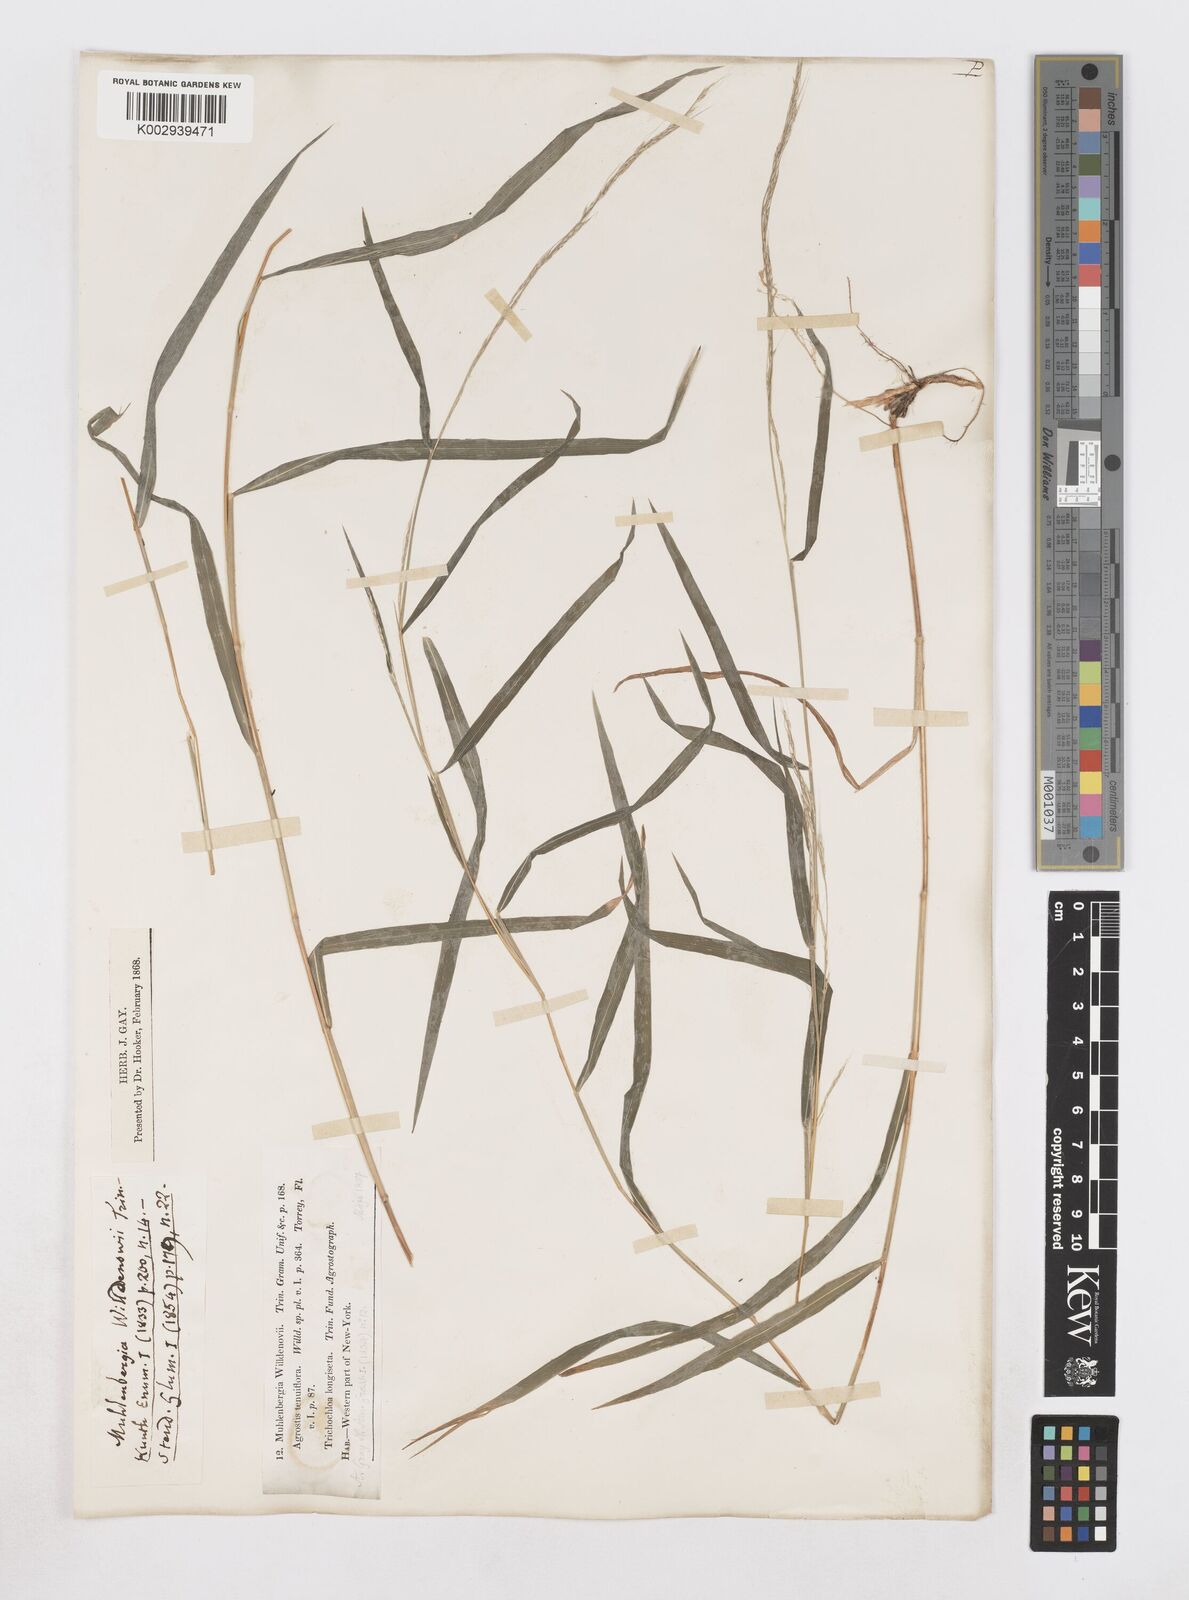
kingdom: Plantae
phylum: Tracheophyta
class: Liliopsida
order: Poales
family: Poaceae
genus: Muhlenbergia
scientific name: Muhlenbergia tenuiflora
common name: Slender muhly
